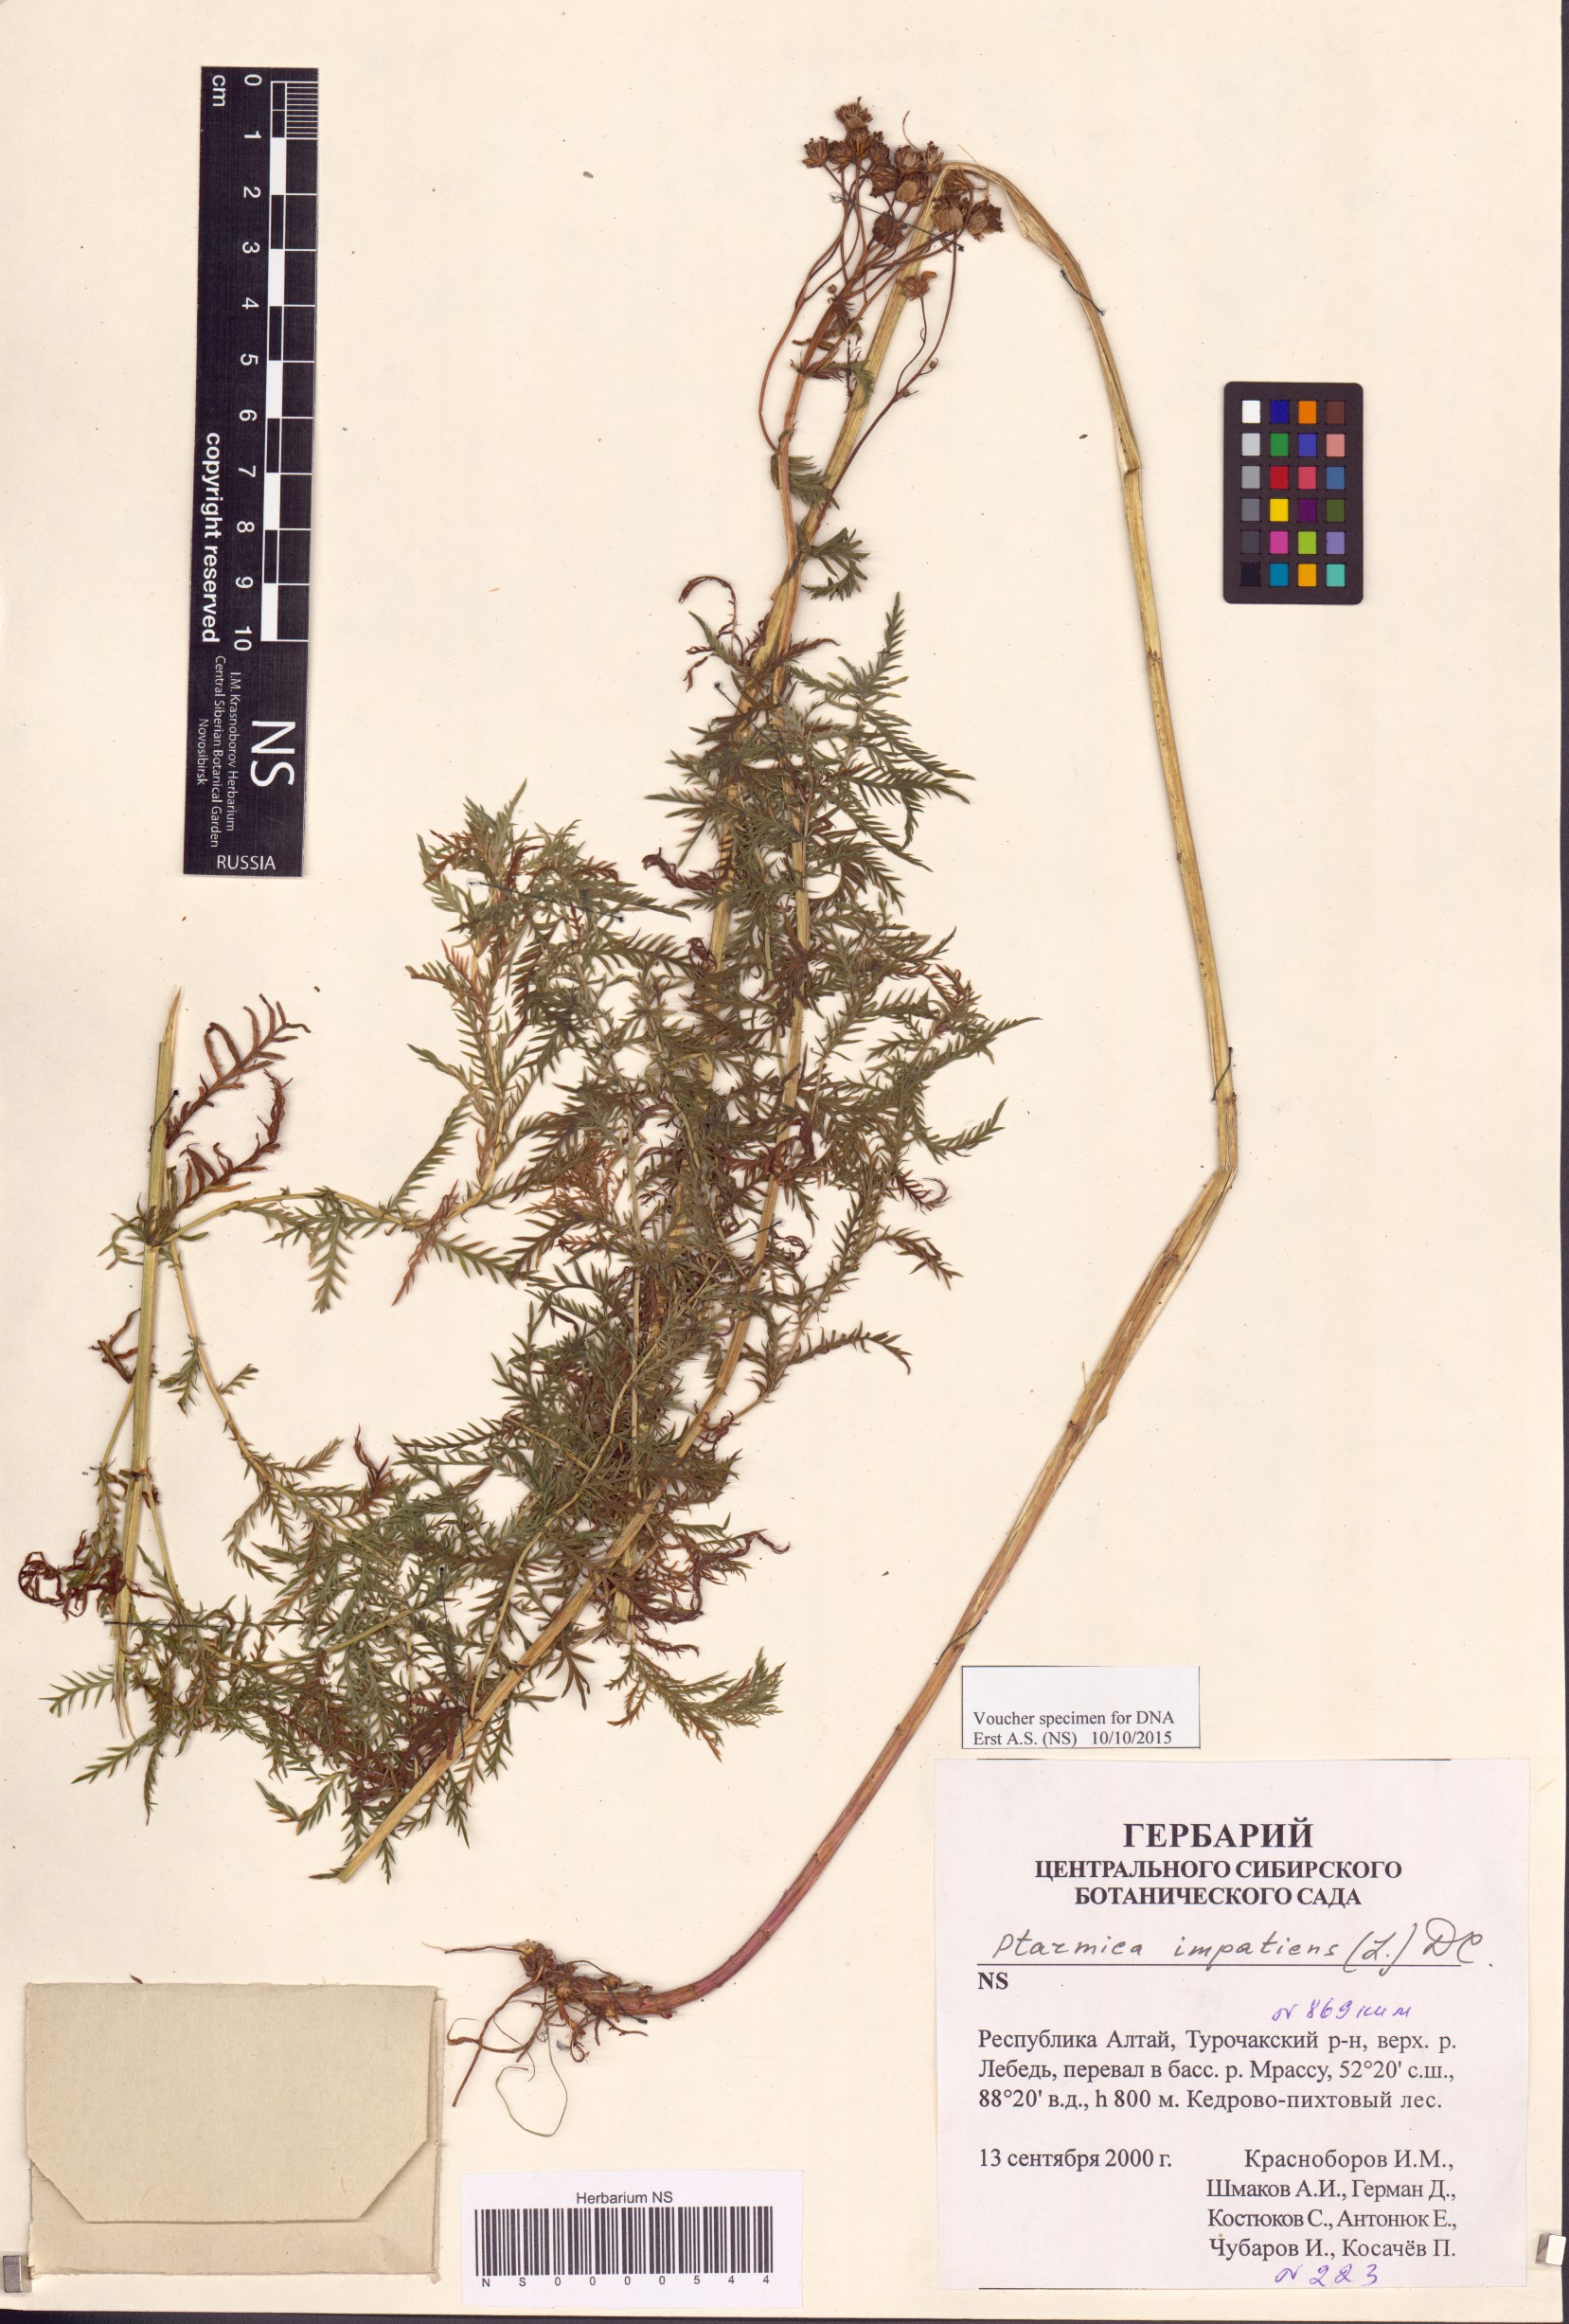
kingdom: Plantae
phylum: Tracheophyta
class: Magnoliopsida
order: Asterales
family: Asteraceae
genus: Achillea
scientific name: Achillea impatiens
